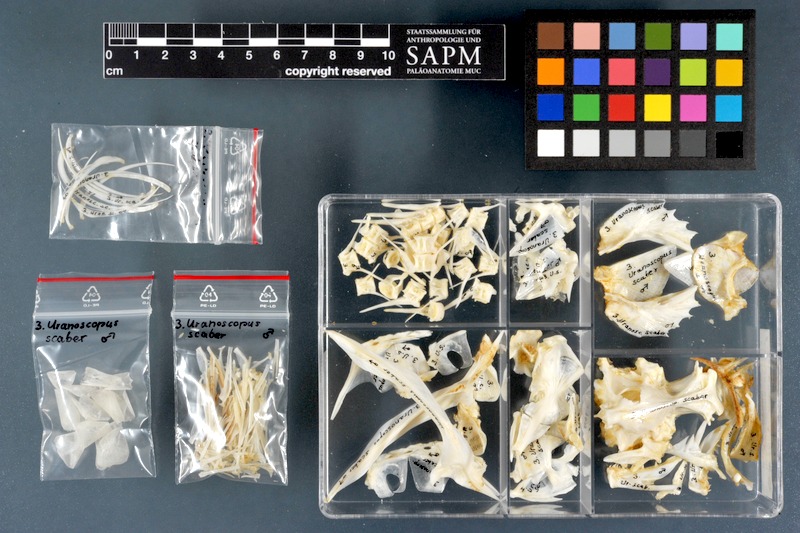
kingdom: Animalia
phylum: Chordata
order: Perciformes
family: Uranoscopidae
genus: Uranoscopus
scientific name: Uranoscopus scaber
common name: Stargazer
